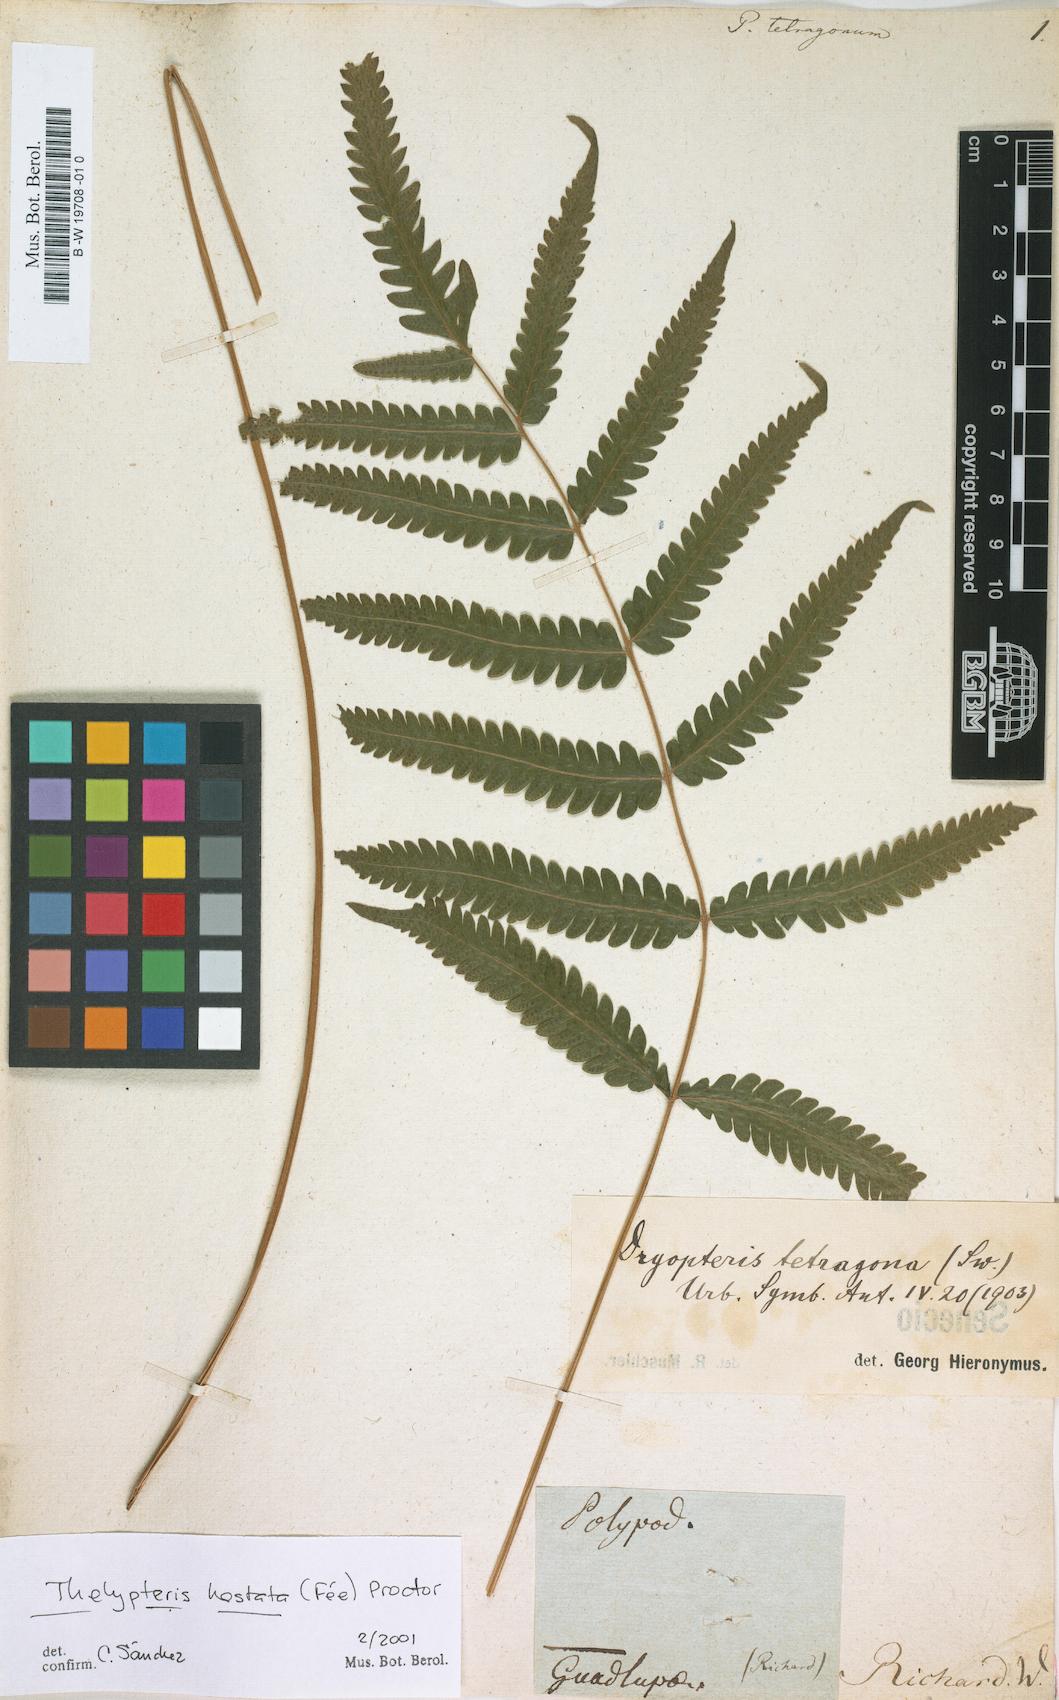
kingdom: Plantae
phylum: Tracheophyta
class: Polypodiopsida
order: Polypodiales
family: Thelypteridaceae
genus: Goniopteris
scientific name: Goniopteris tetragona
